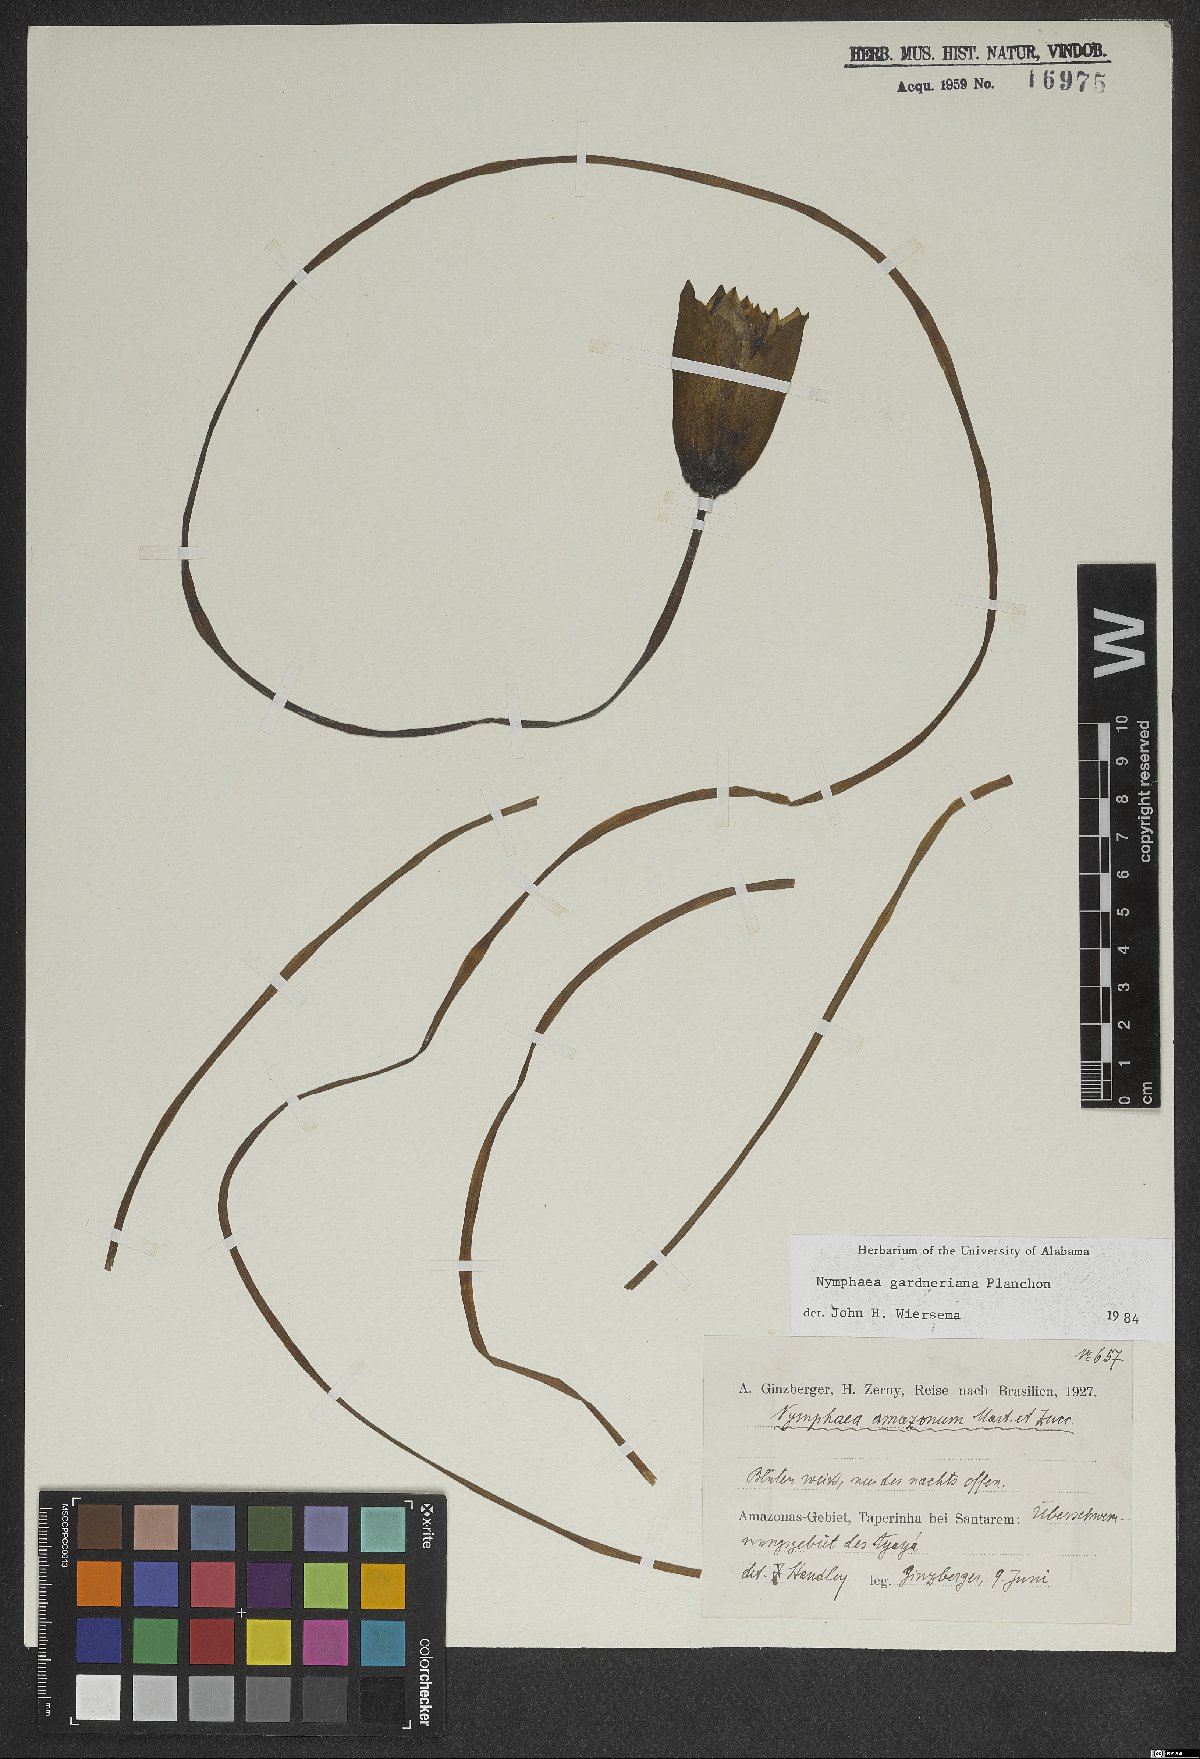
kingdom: Plantae
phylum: Tracheophyta
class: Magnoliopsida
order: Nymphaeales
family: Nymphaeaceae
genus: Nymphaea
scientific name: Nymphaea gardneriana
